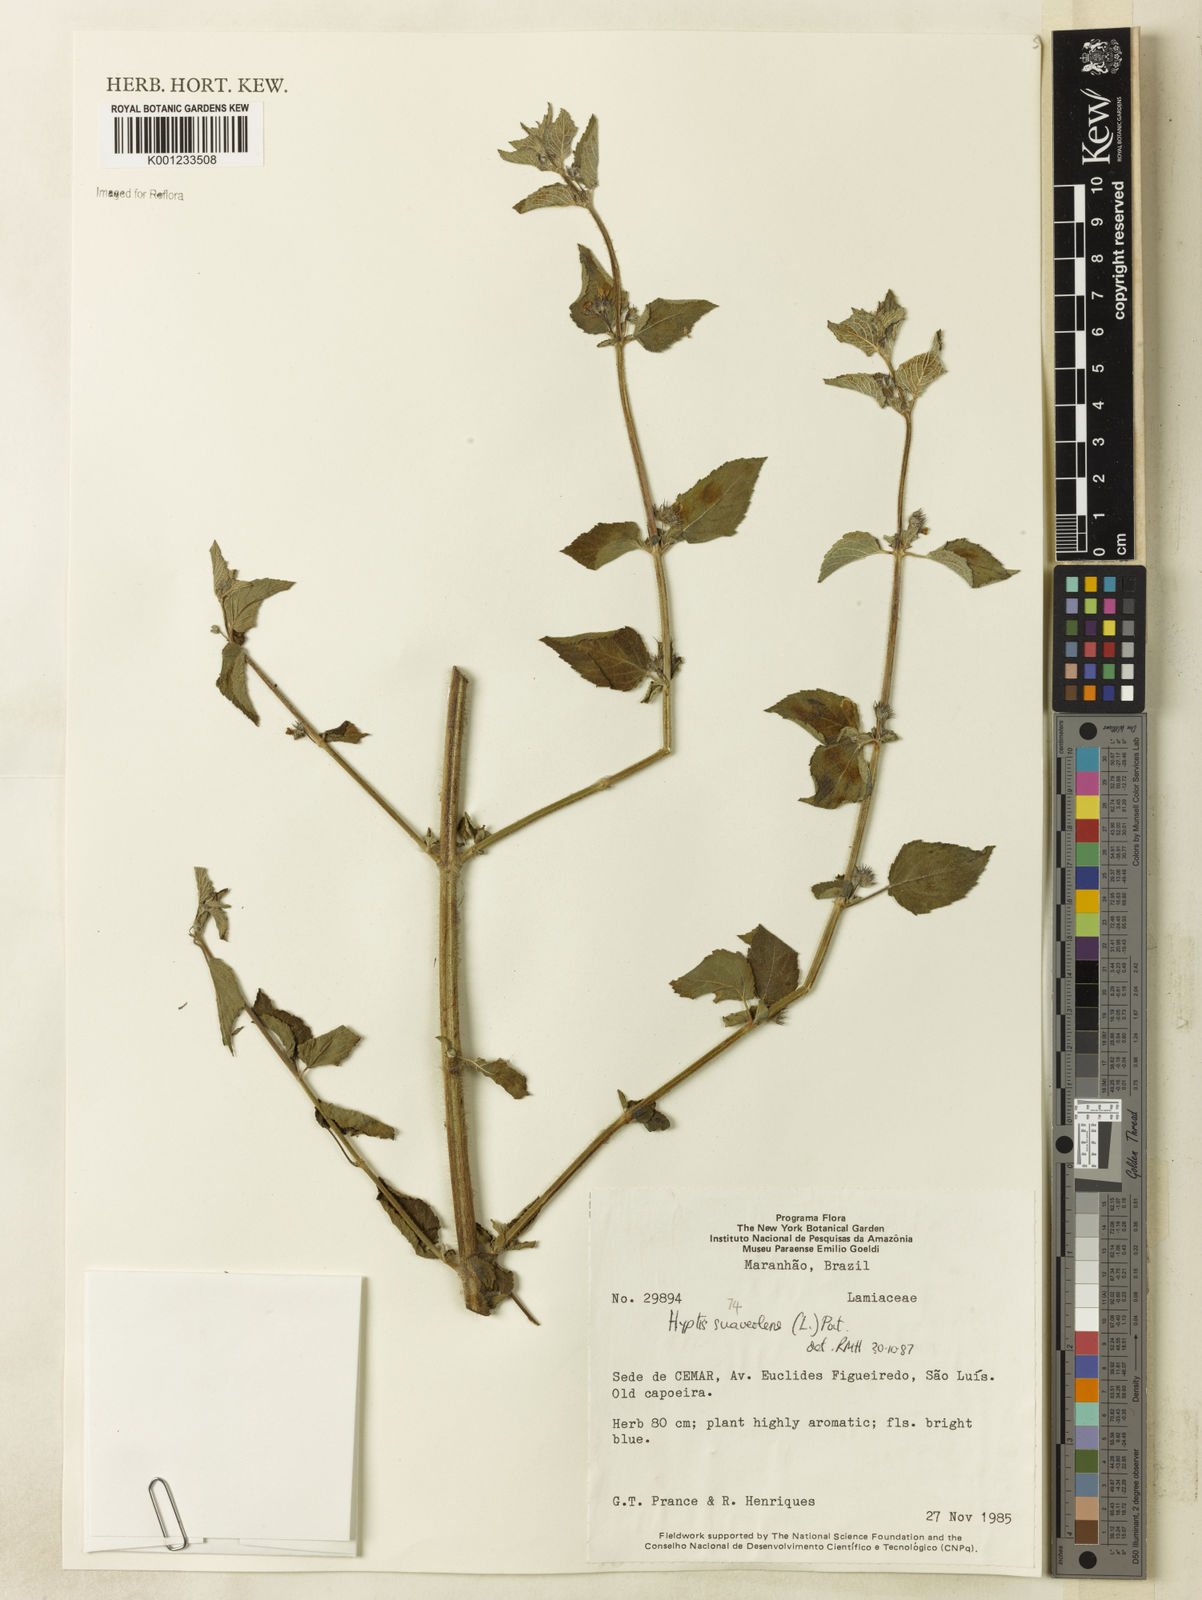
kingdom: Plantae
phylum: Tracheophyta
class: Magnoliopsida
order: Lamiales
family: Lamiaceae
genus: Mesosphaerum
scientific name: Mesosphaerum suaveolens
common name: Pignut
